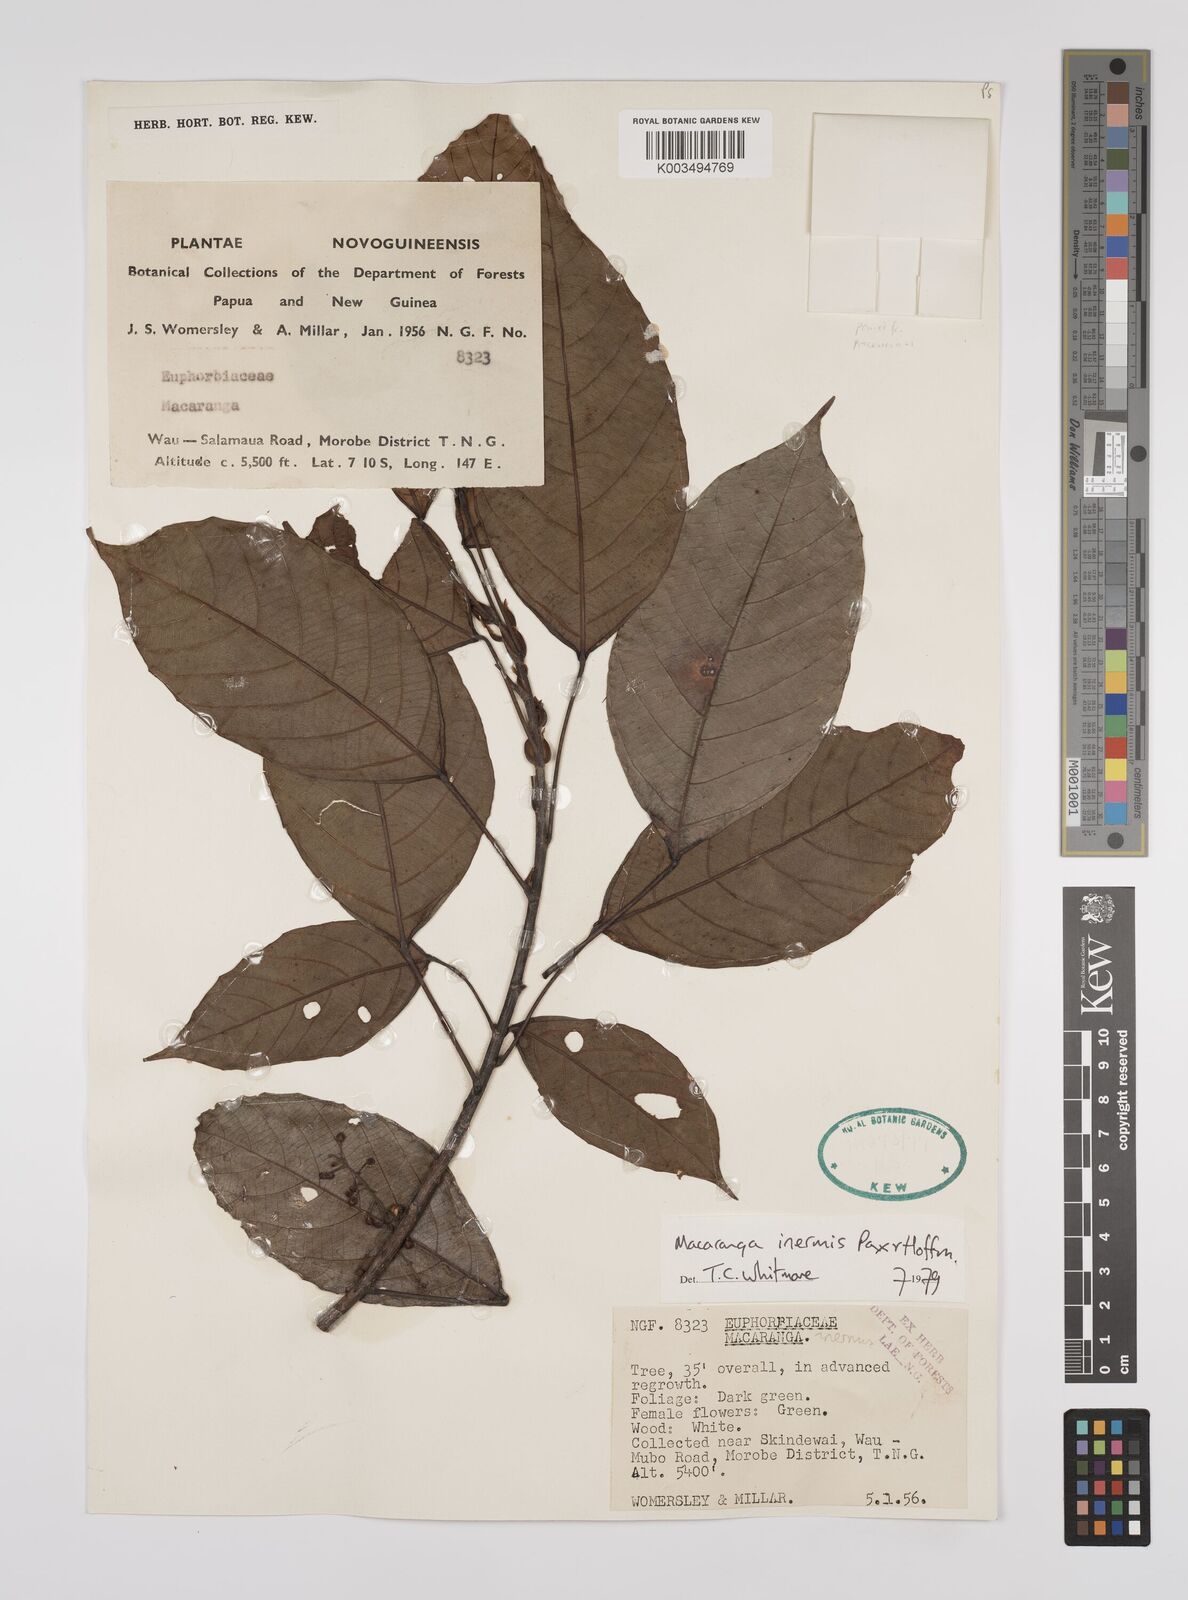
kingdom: Plantae
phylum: Tracheophyta
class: Magnoliopsida
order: Malpighiales
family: Euphorbiaceae
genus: Macaranga
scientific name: Macaranga inermis
